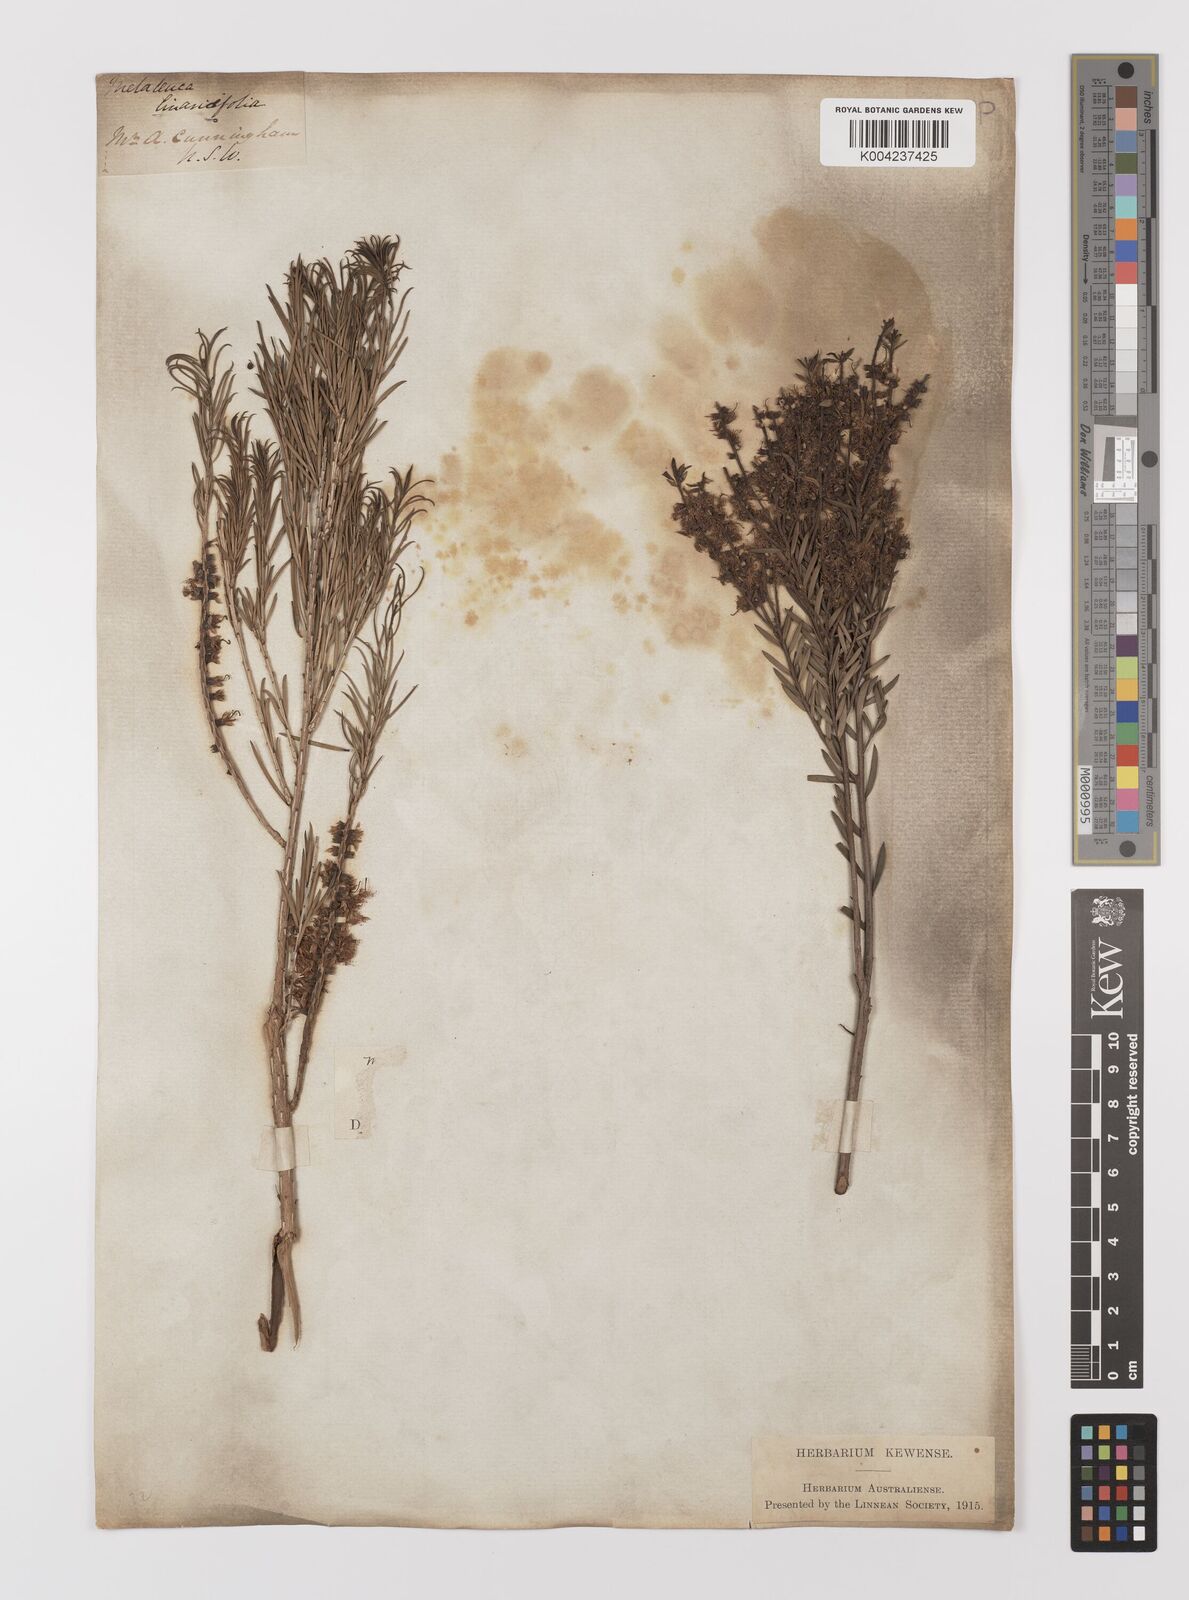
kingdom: Plantae
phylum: Tracheophyta
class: Magnoliopsida
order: Myrtales
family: Myrtaceae
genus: Melaleuca
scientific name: Melaleuca
